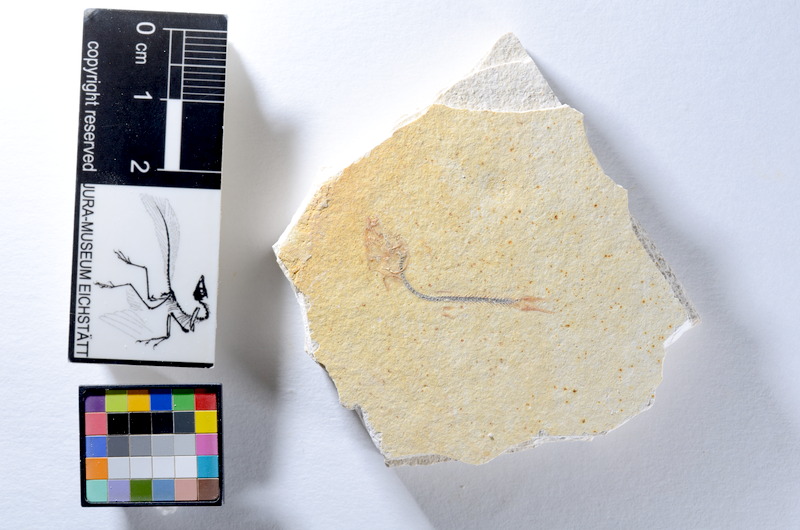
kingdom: Animalia
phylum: Chordata
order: Salmoniformes
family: Orthogonikleithridae
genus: Orthogonikleithrus
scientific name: Orthogonikleithrus hoelli
